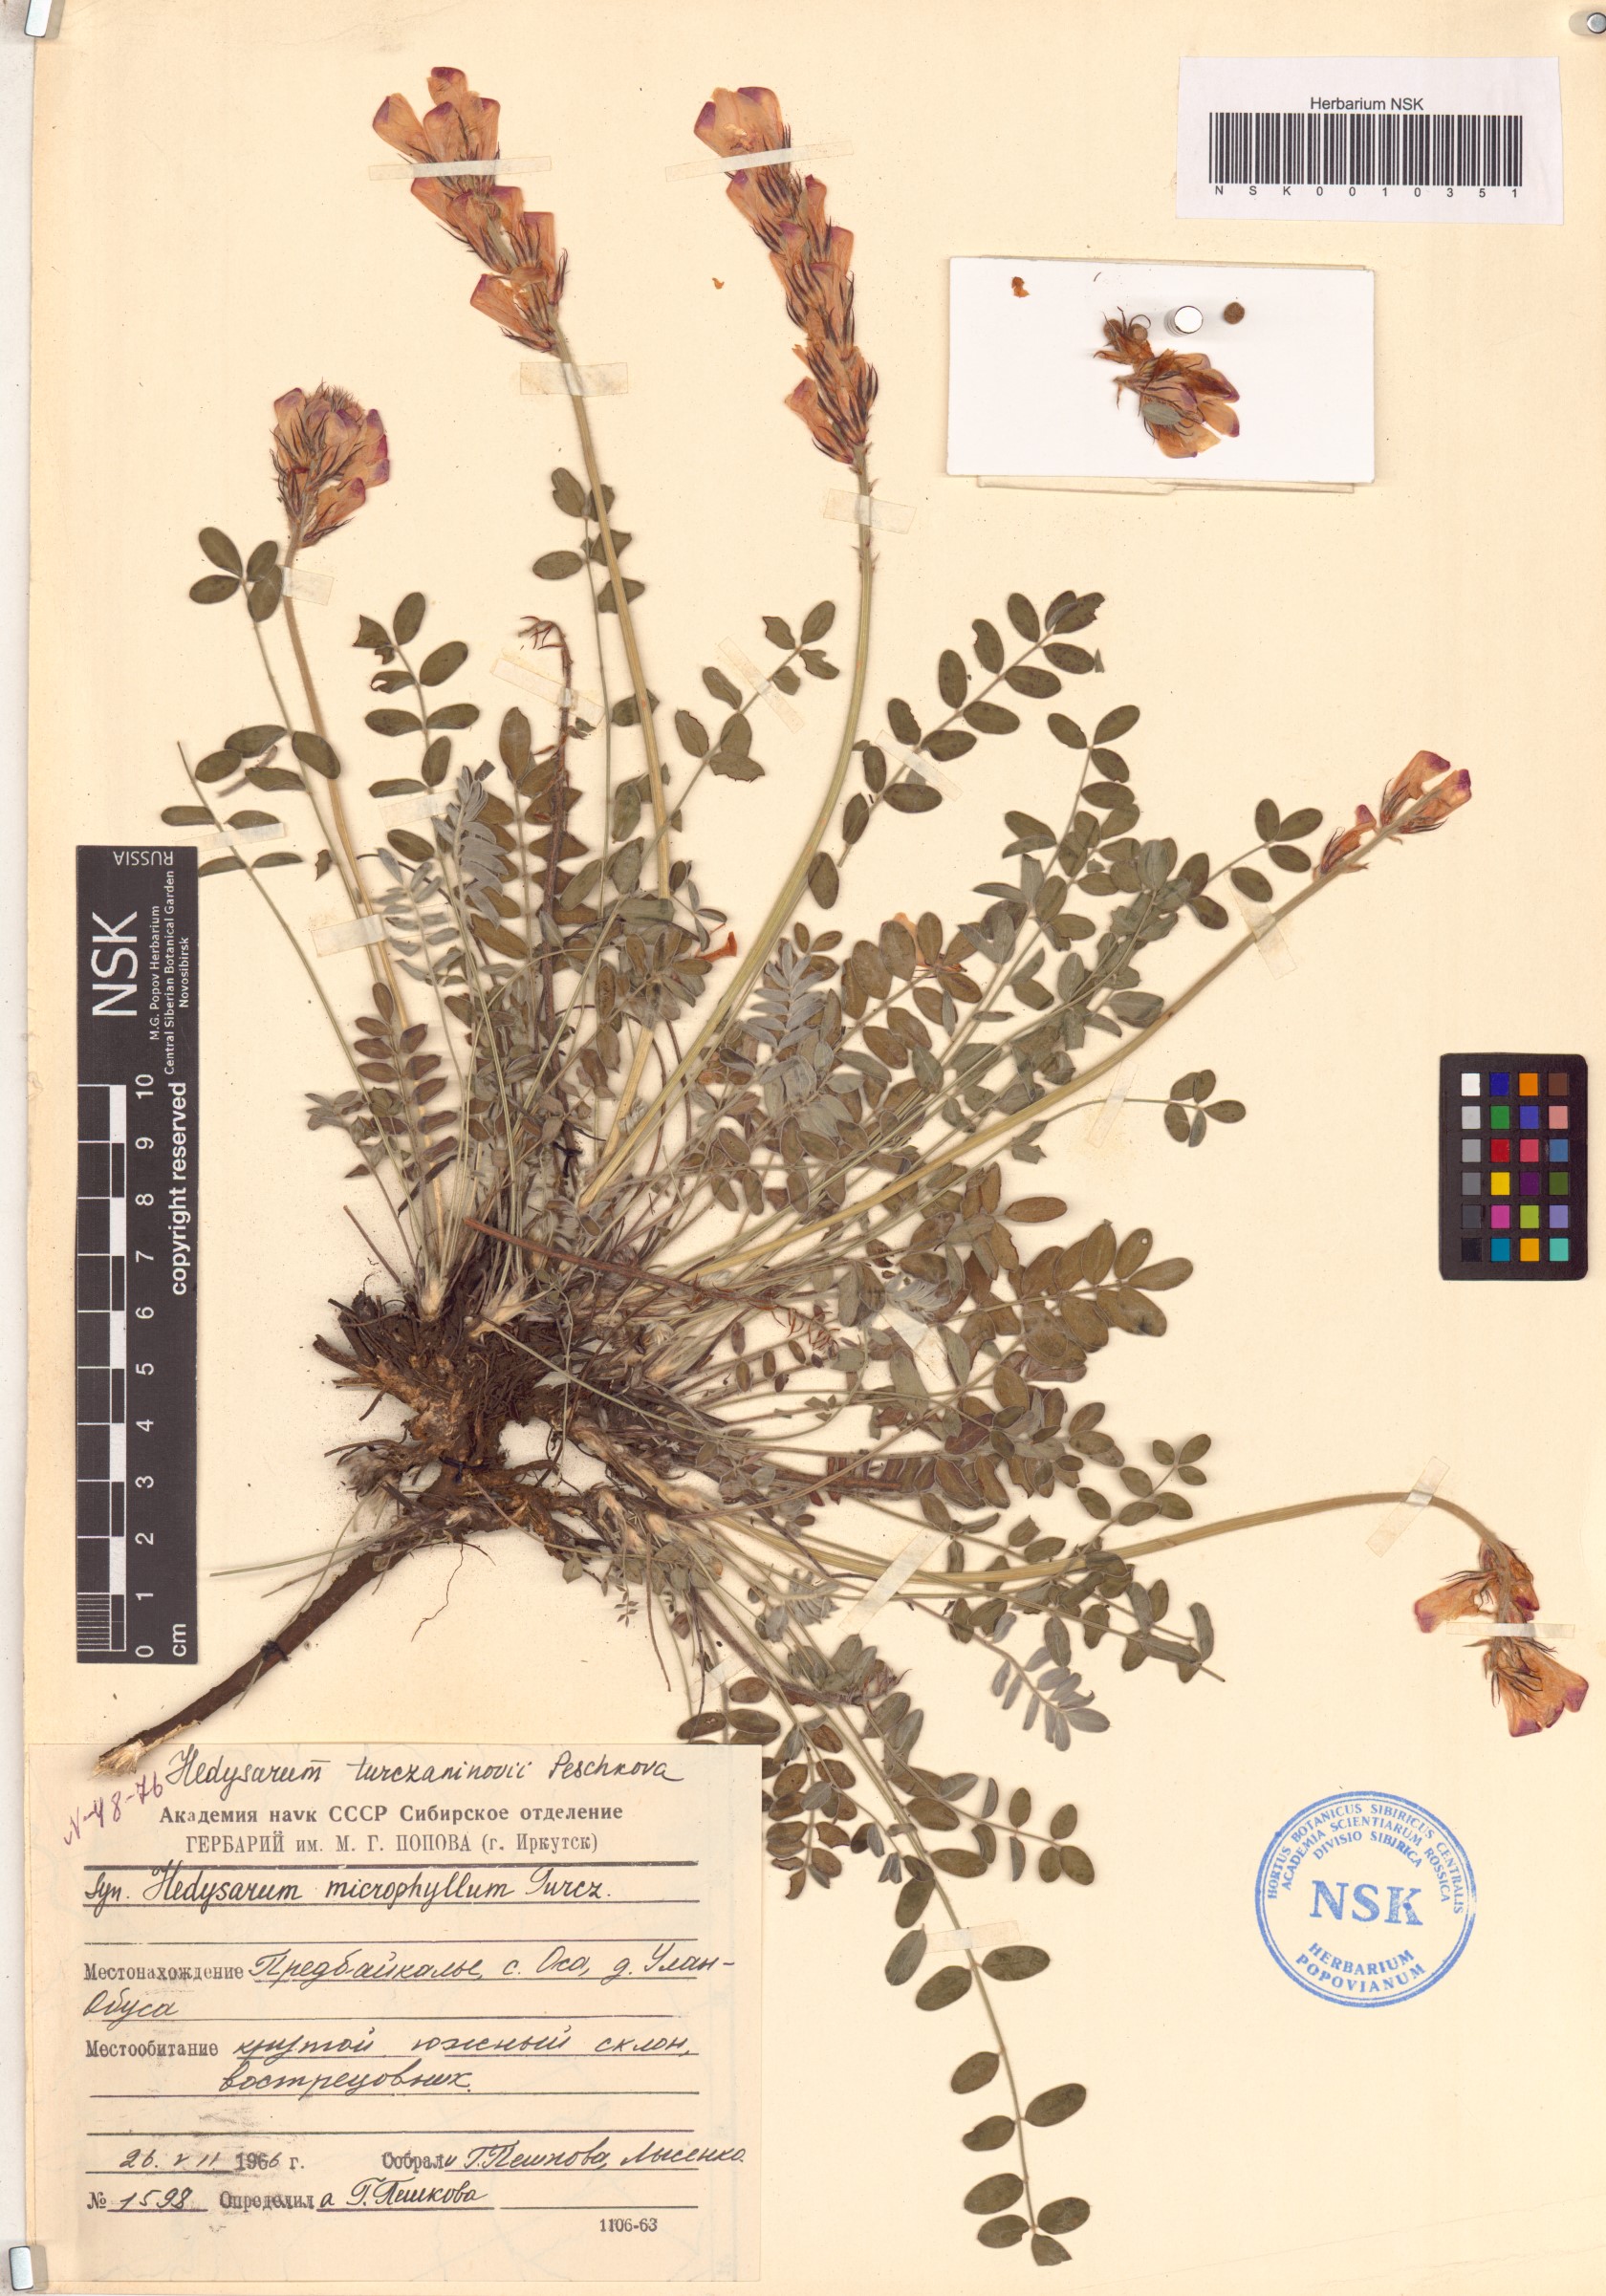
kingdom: Plantae
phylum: Tracheophyta
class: Magnoliopsida
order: Fabales
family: Fabaceae
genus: Hedysarum
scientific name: Hedysarum turczaninovii
